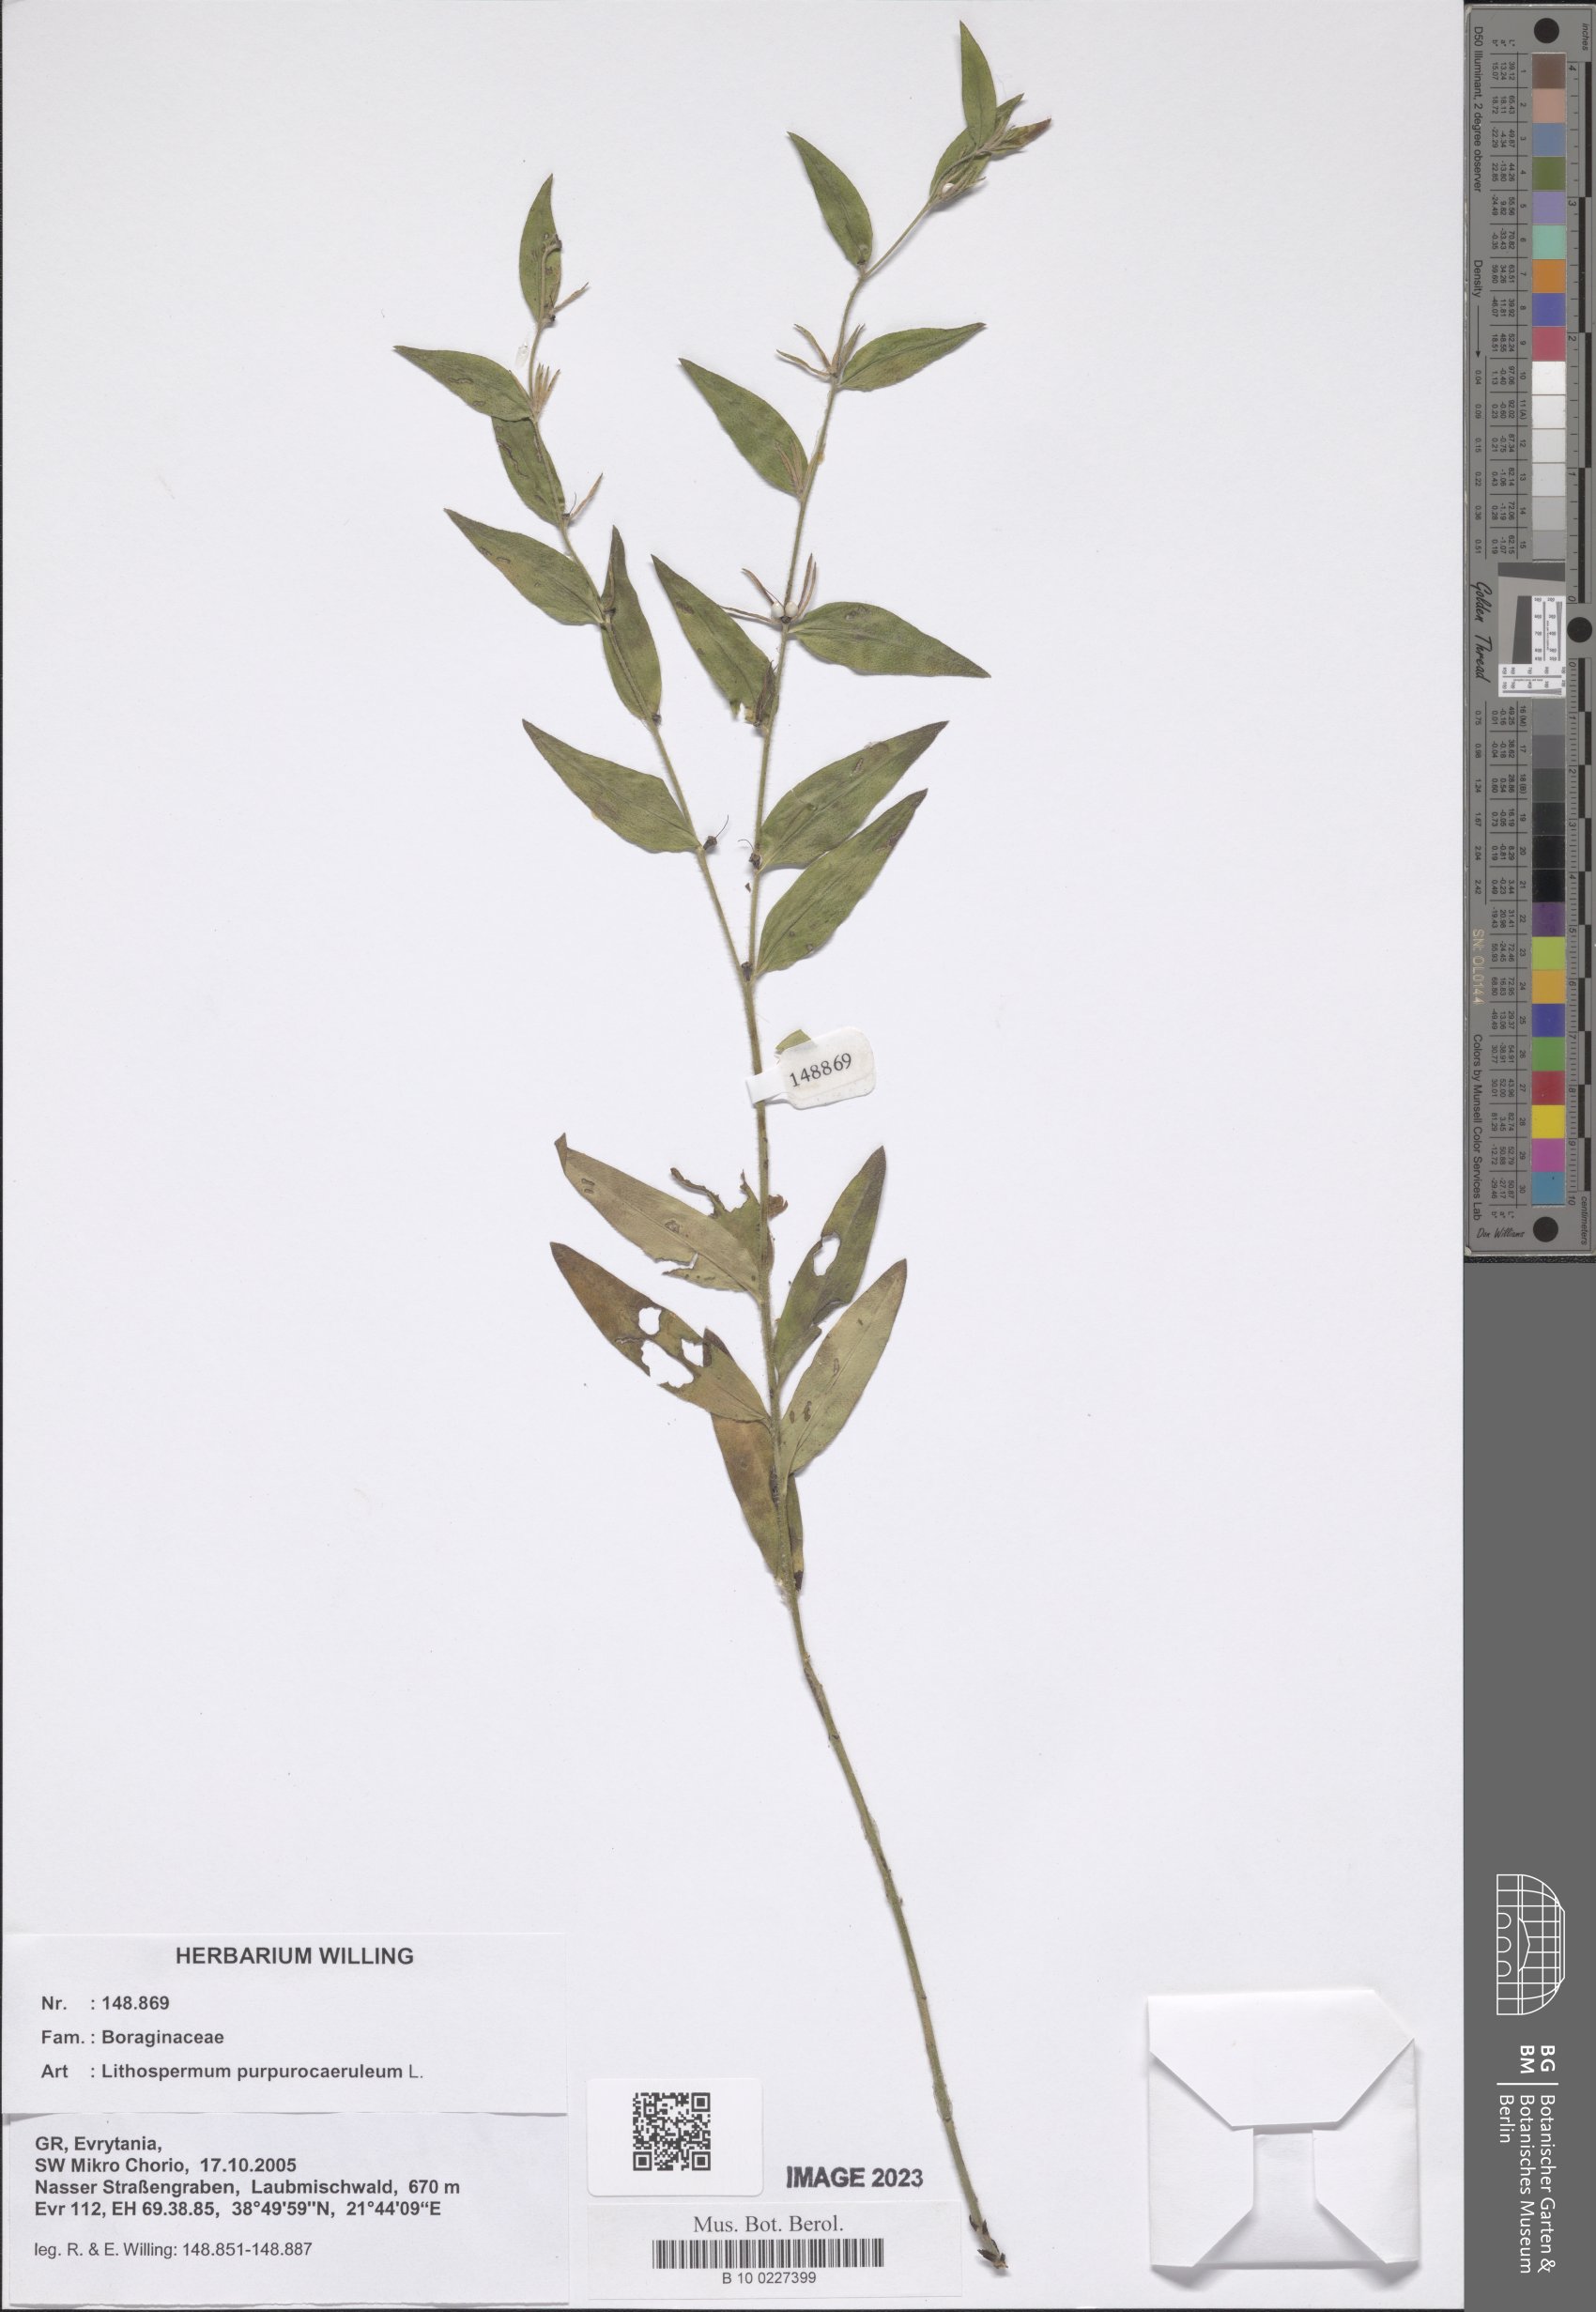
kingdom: Plantae
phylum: Tracheophyta
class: Magnoliopsida
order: Boraginales
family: Boraginaceae
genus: Aegonychon
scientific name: Aegonychon purpurocaeruleum
